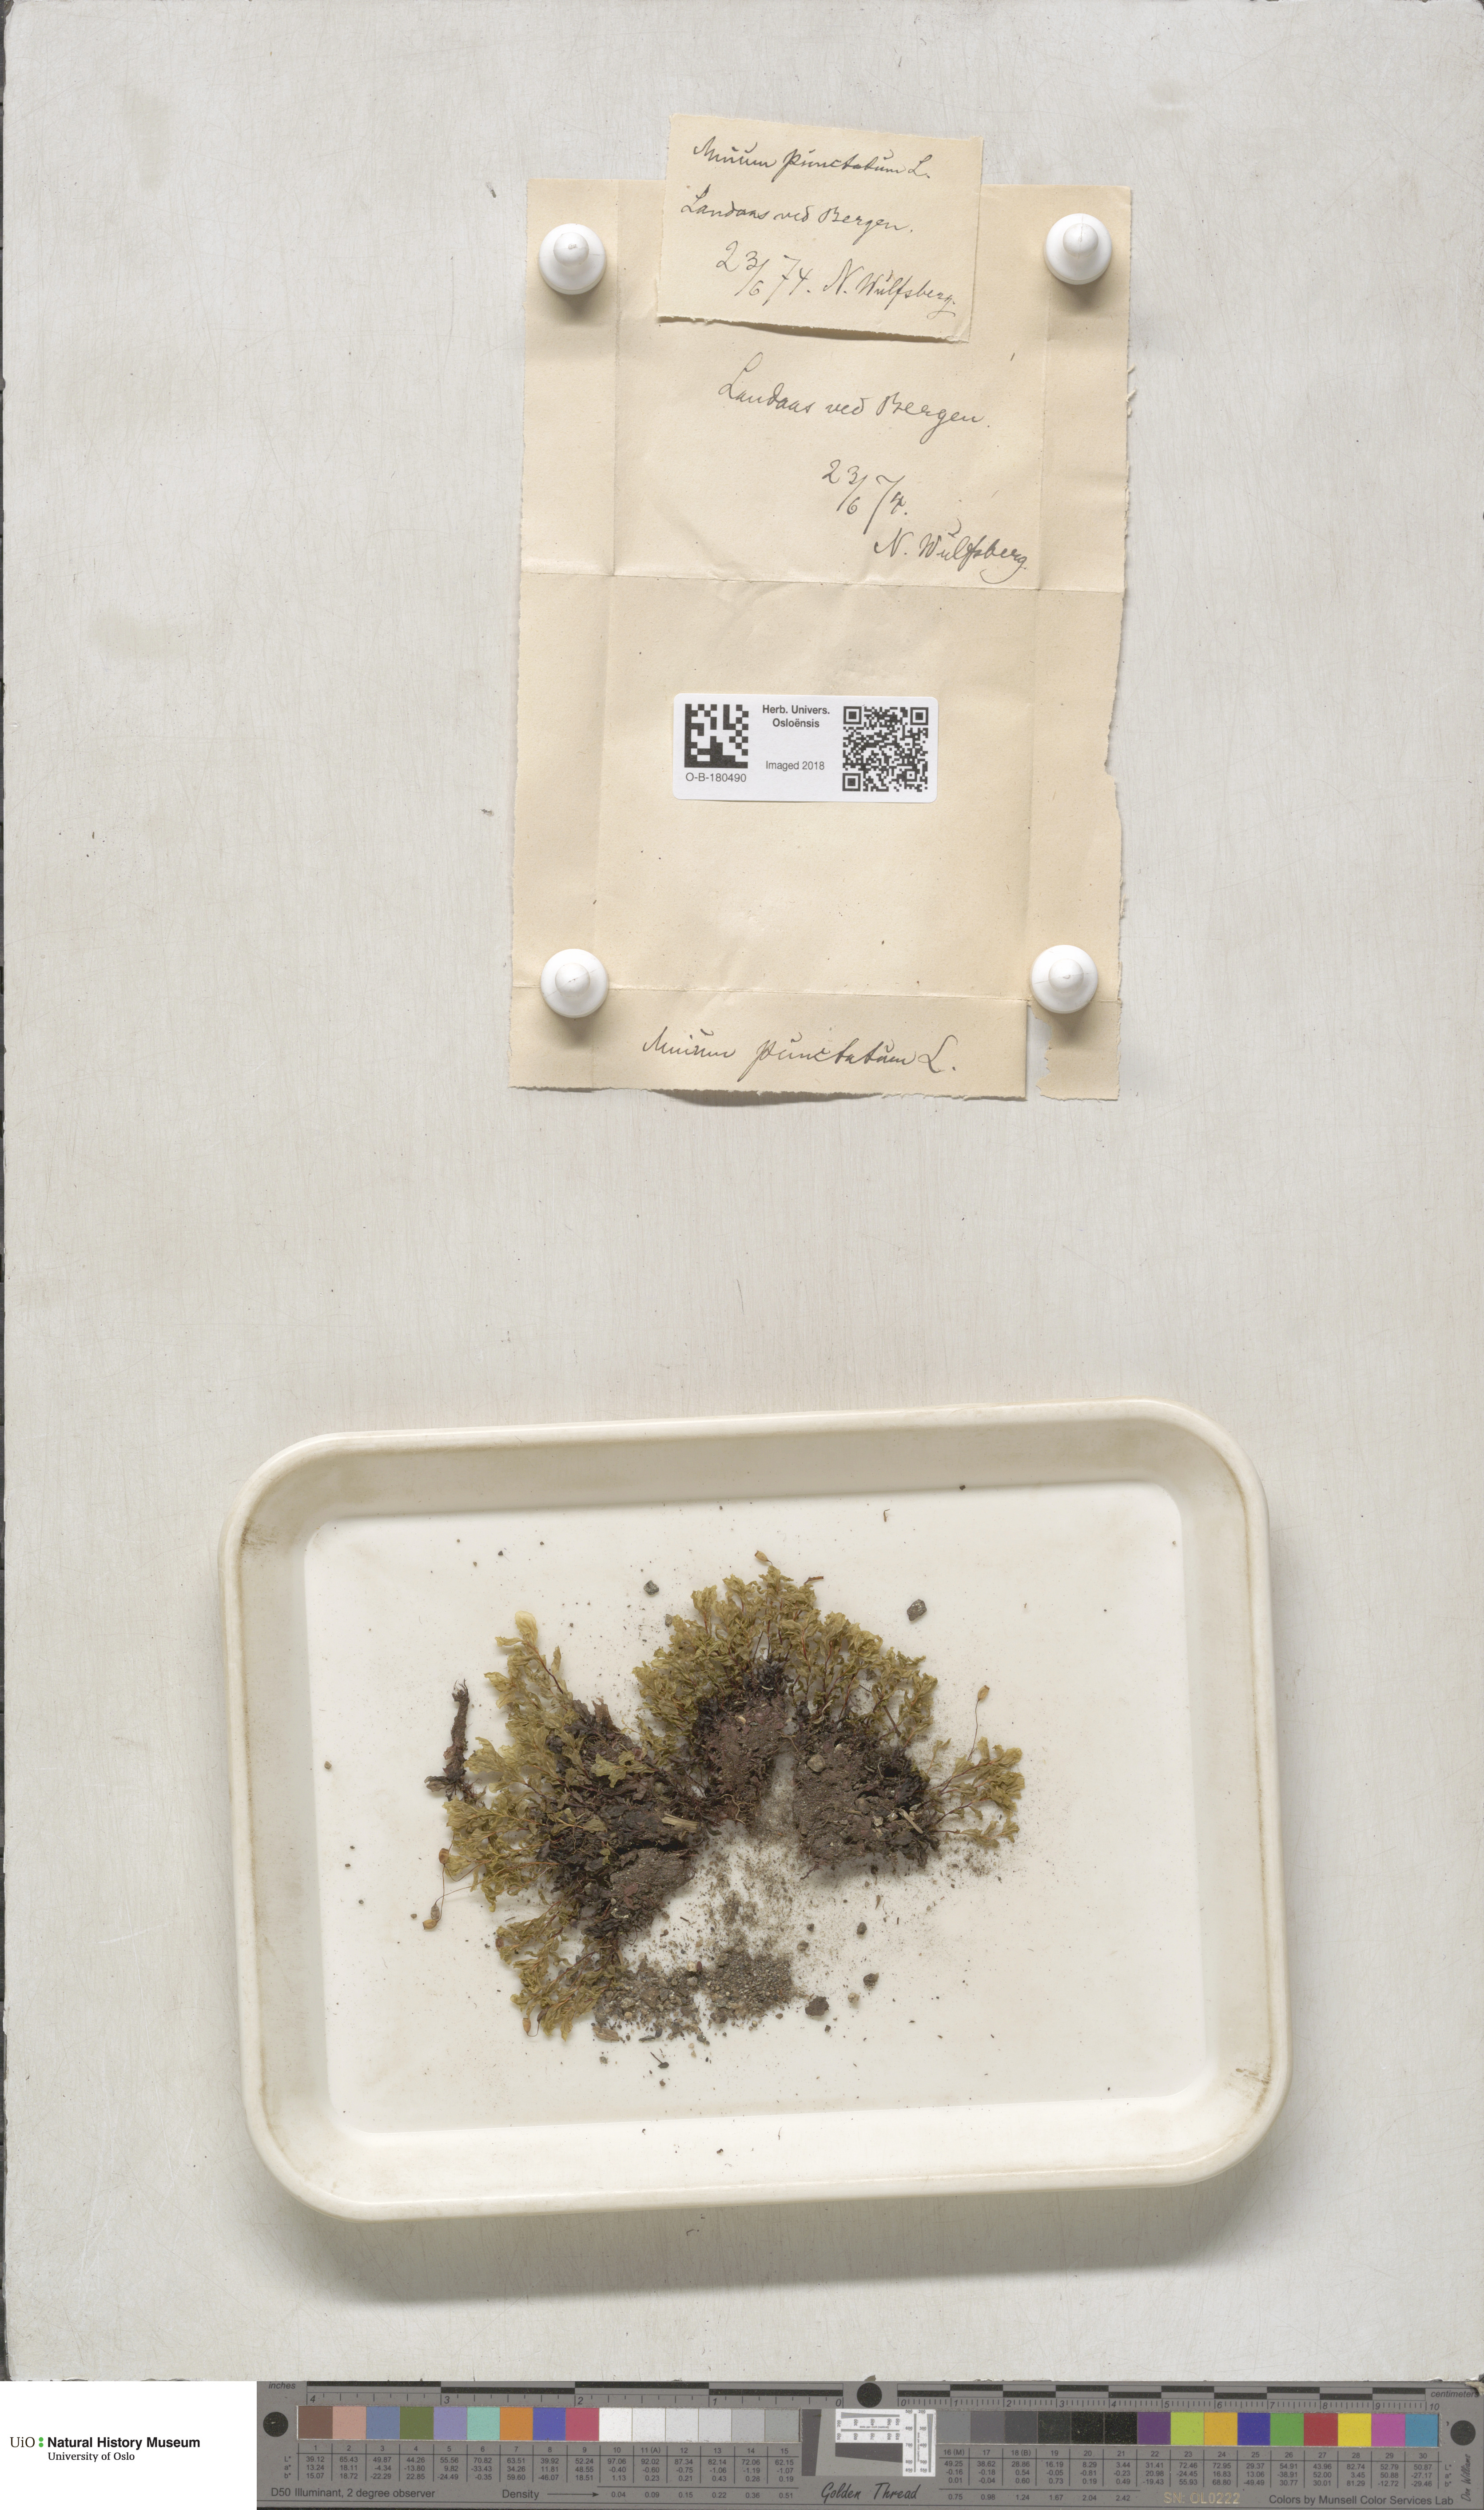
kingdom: Plantae
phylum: Bryophyta
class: Bryopsida
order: Bryales
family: Mniaceae
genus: Rhizomnium
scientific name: Rhizomnium punctatum
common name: Dotted leafy moss
